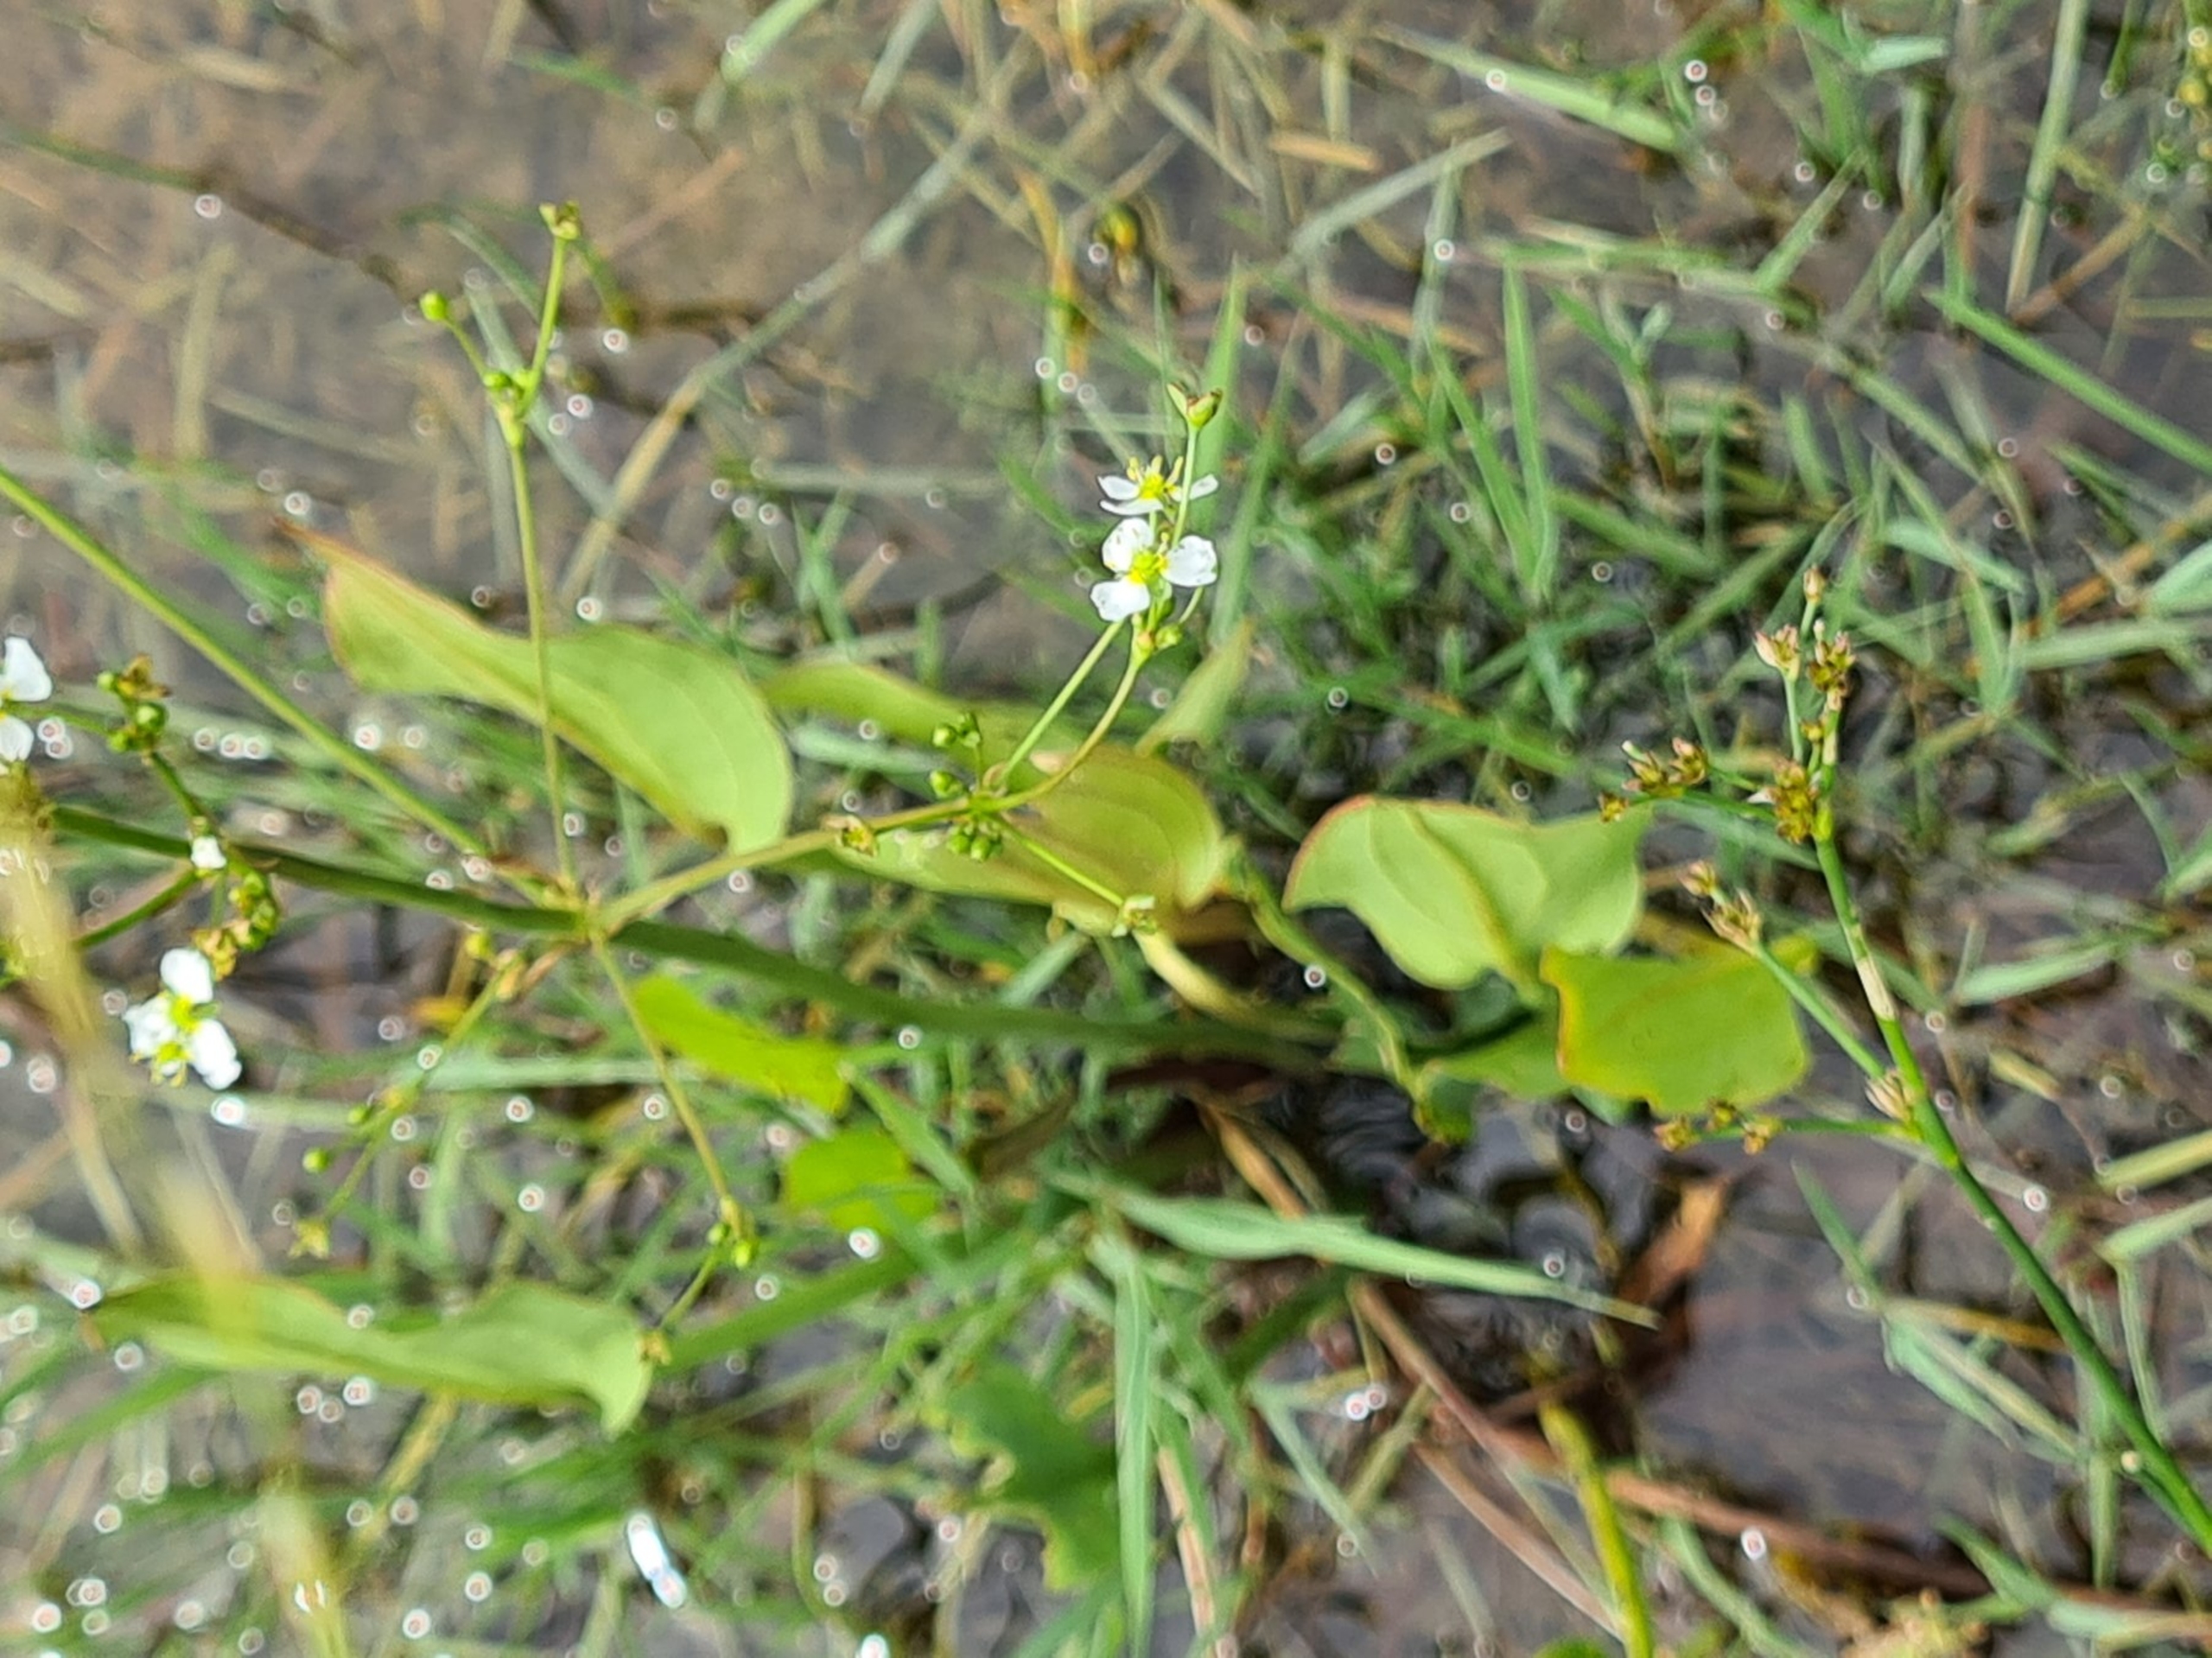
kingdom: Plantae
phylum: Tracheophyta
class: Liliopsida
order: Alismatales
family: Alismataceae
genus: Alisma
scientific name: Alisma plantago-aquatica
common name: Vejbred-skeblad
